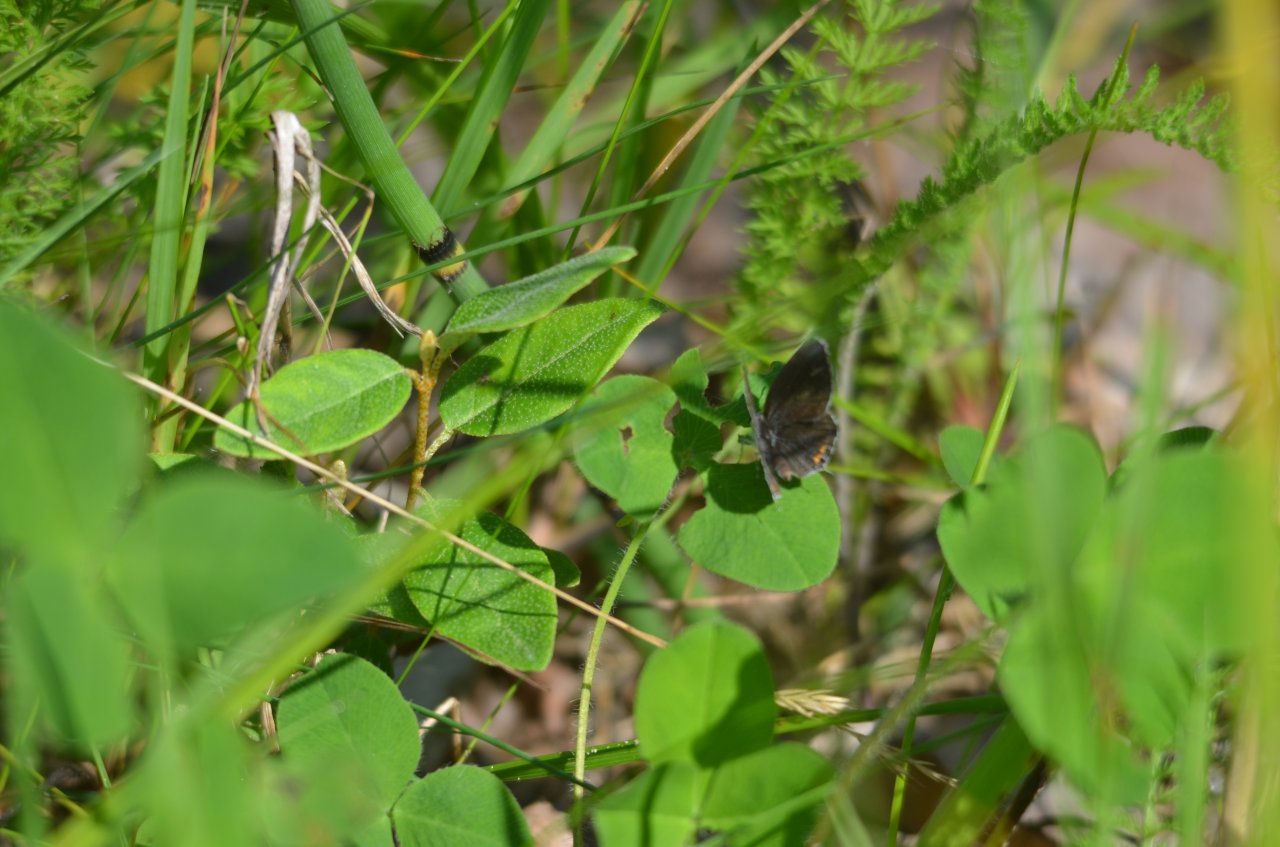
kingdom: Animalia
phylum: Arthropoda
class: Insecta
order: Lepidoptera
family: Lycaenidae
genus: Elkalyce
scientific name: Elkalyce comyntas
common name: Eastern Tailed-Blue
